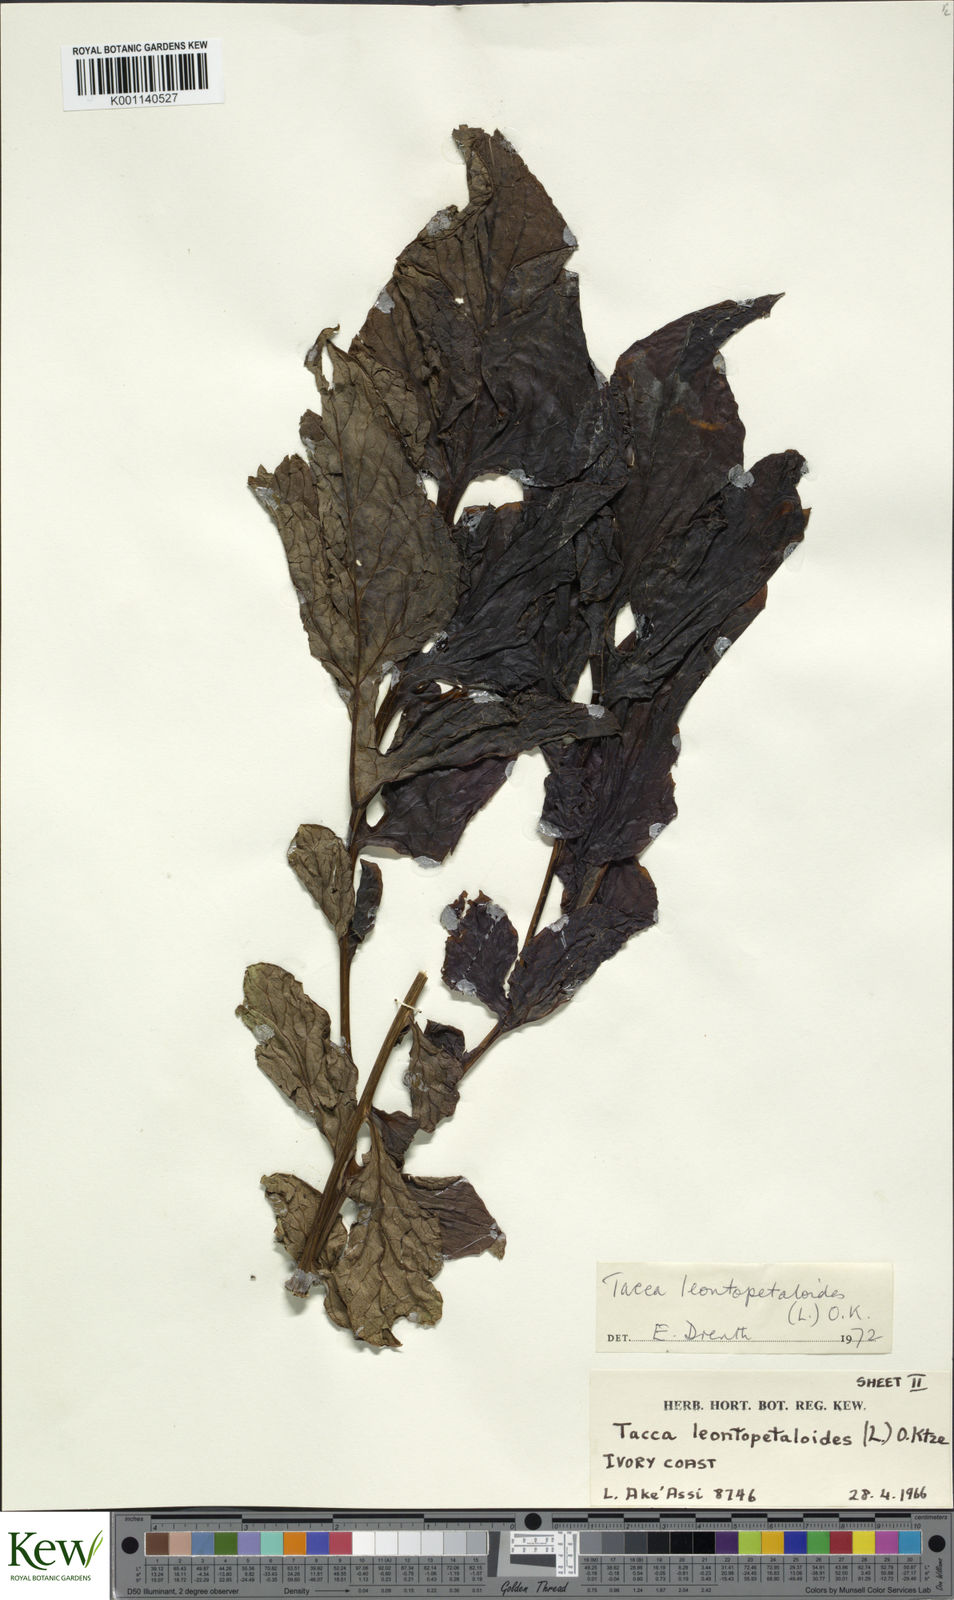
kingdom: Plantae
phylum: Tracheophyta
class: Liliopsida
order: Dioscoreales
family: Dioscoreaceae
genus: Tacca
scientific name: Tacca leontopetaloides
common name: Arrowroot
